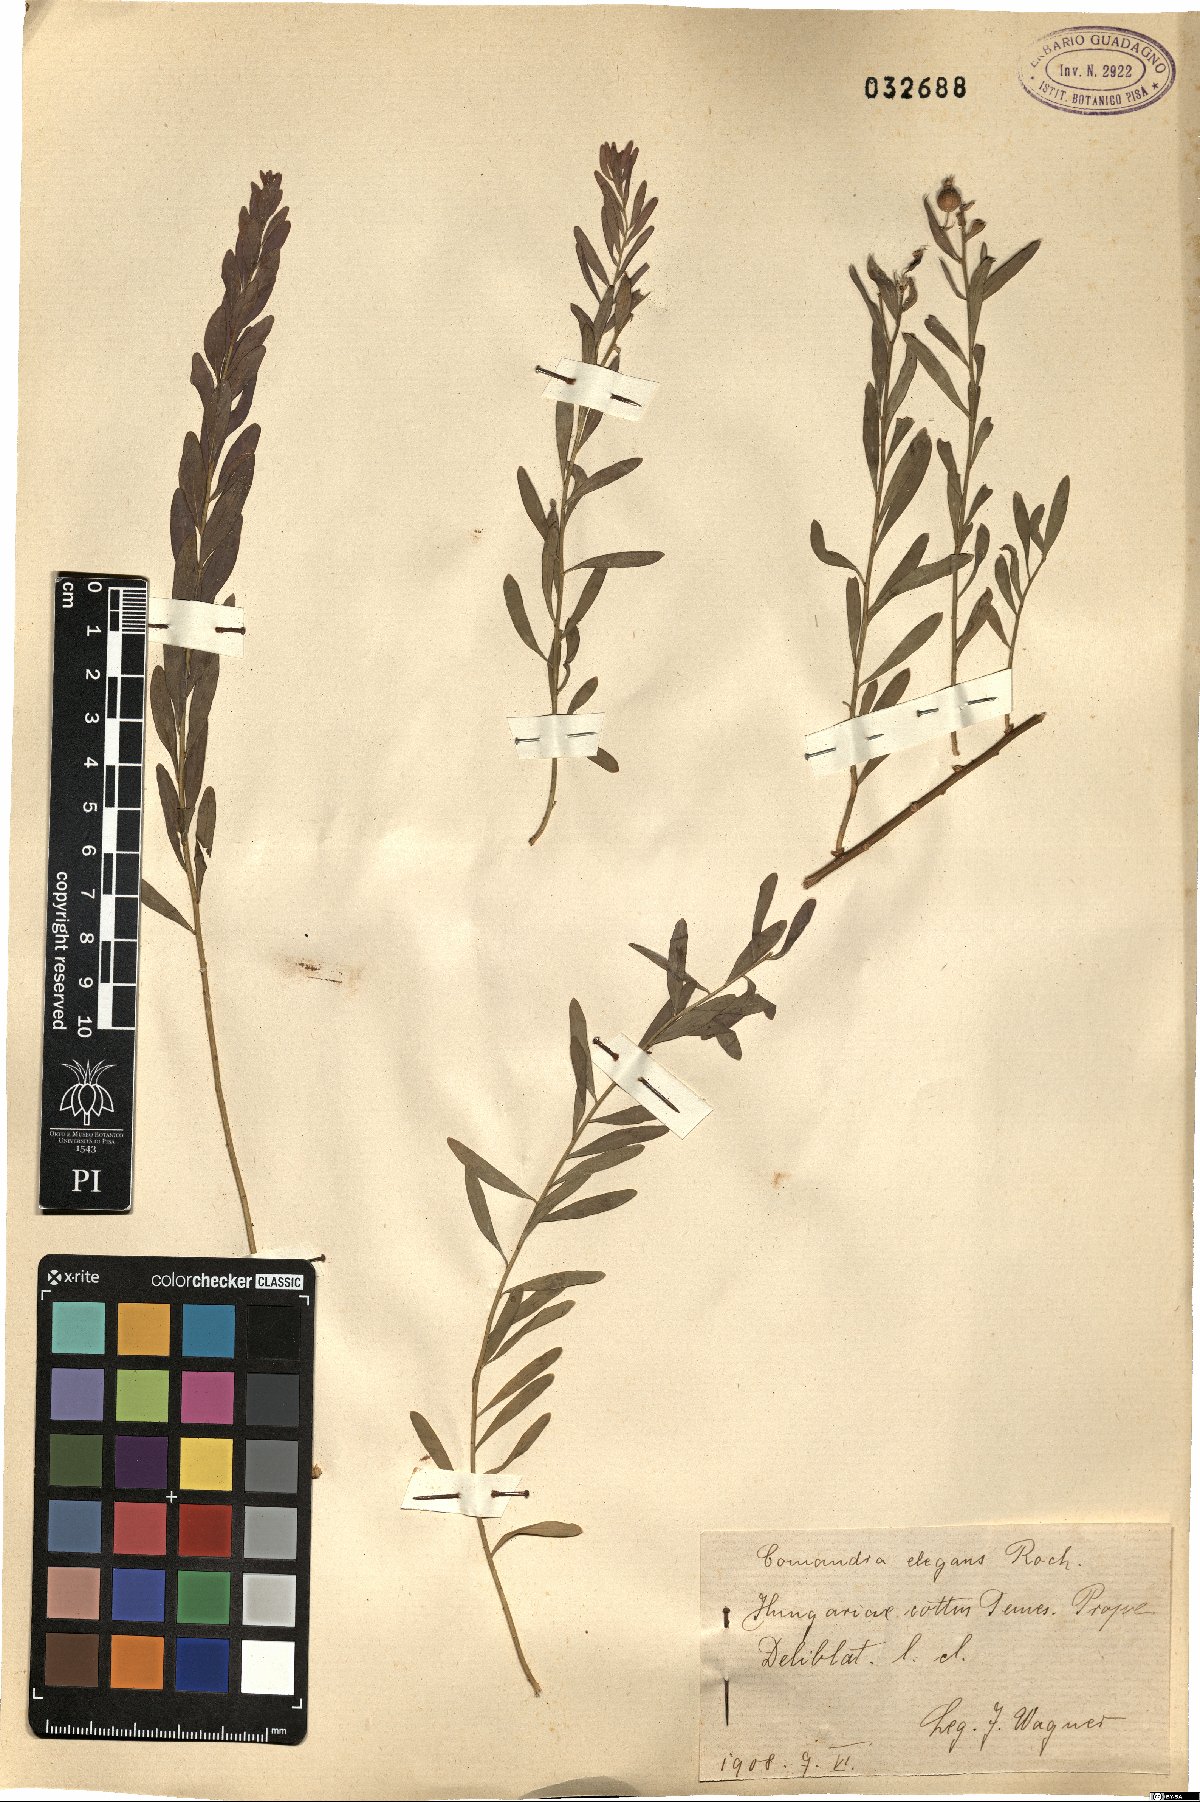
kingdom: Plantae
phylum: Tracheophyta
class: Magnoliopsida
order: Santalales
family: Comandraceae
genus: Comandra
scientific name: Comandra umbellata
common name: Bastard toadflax
